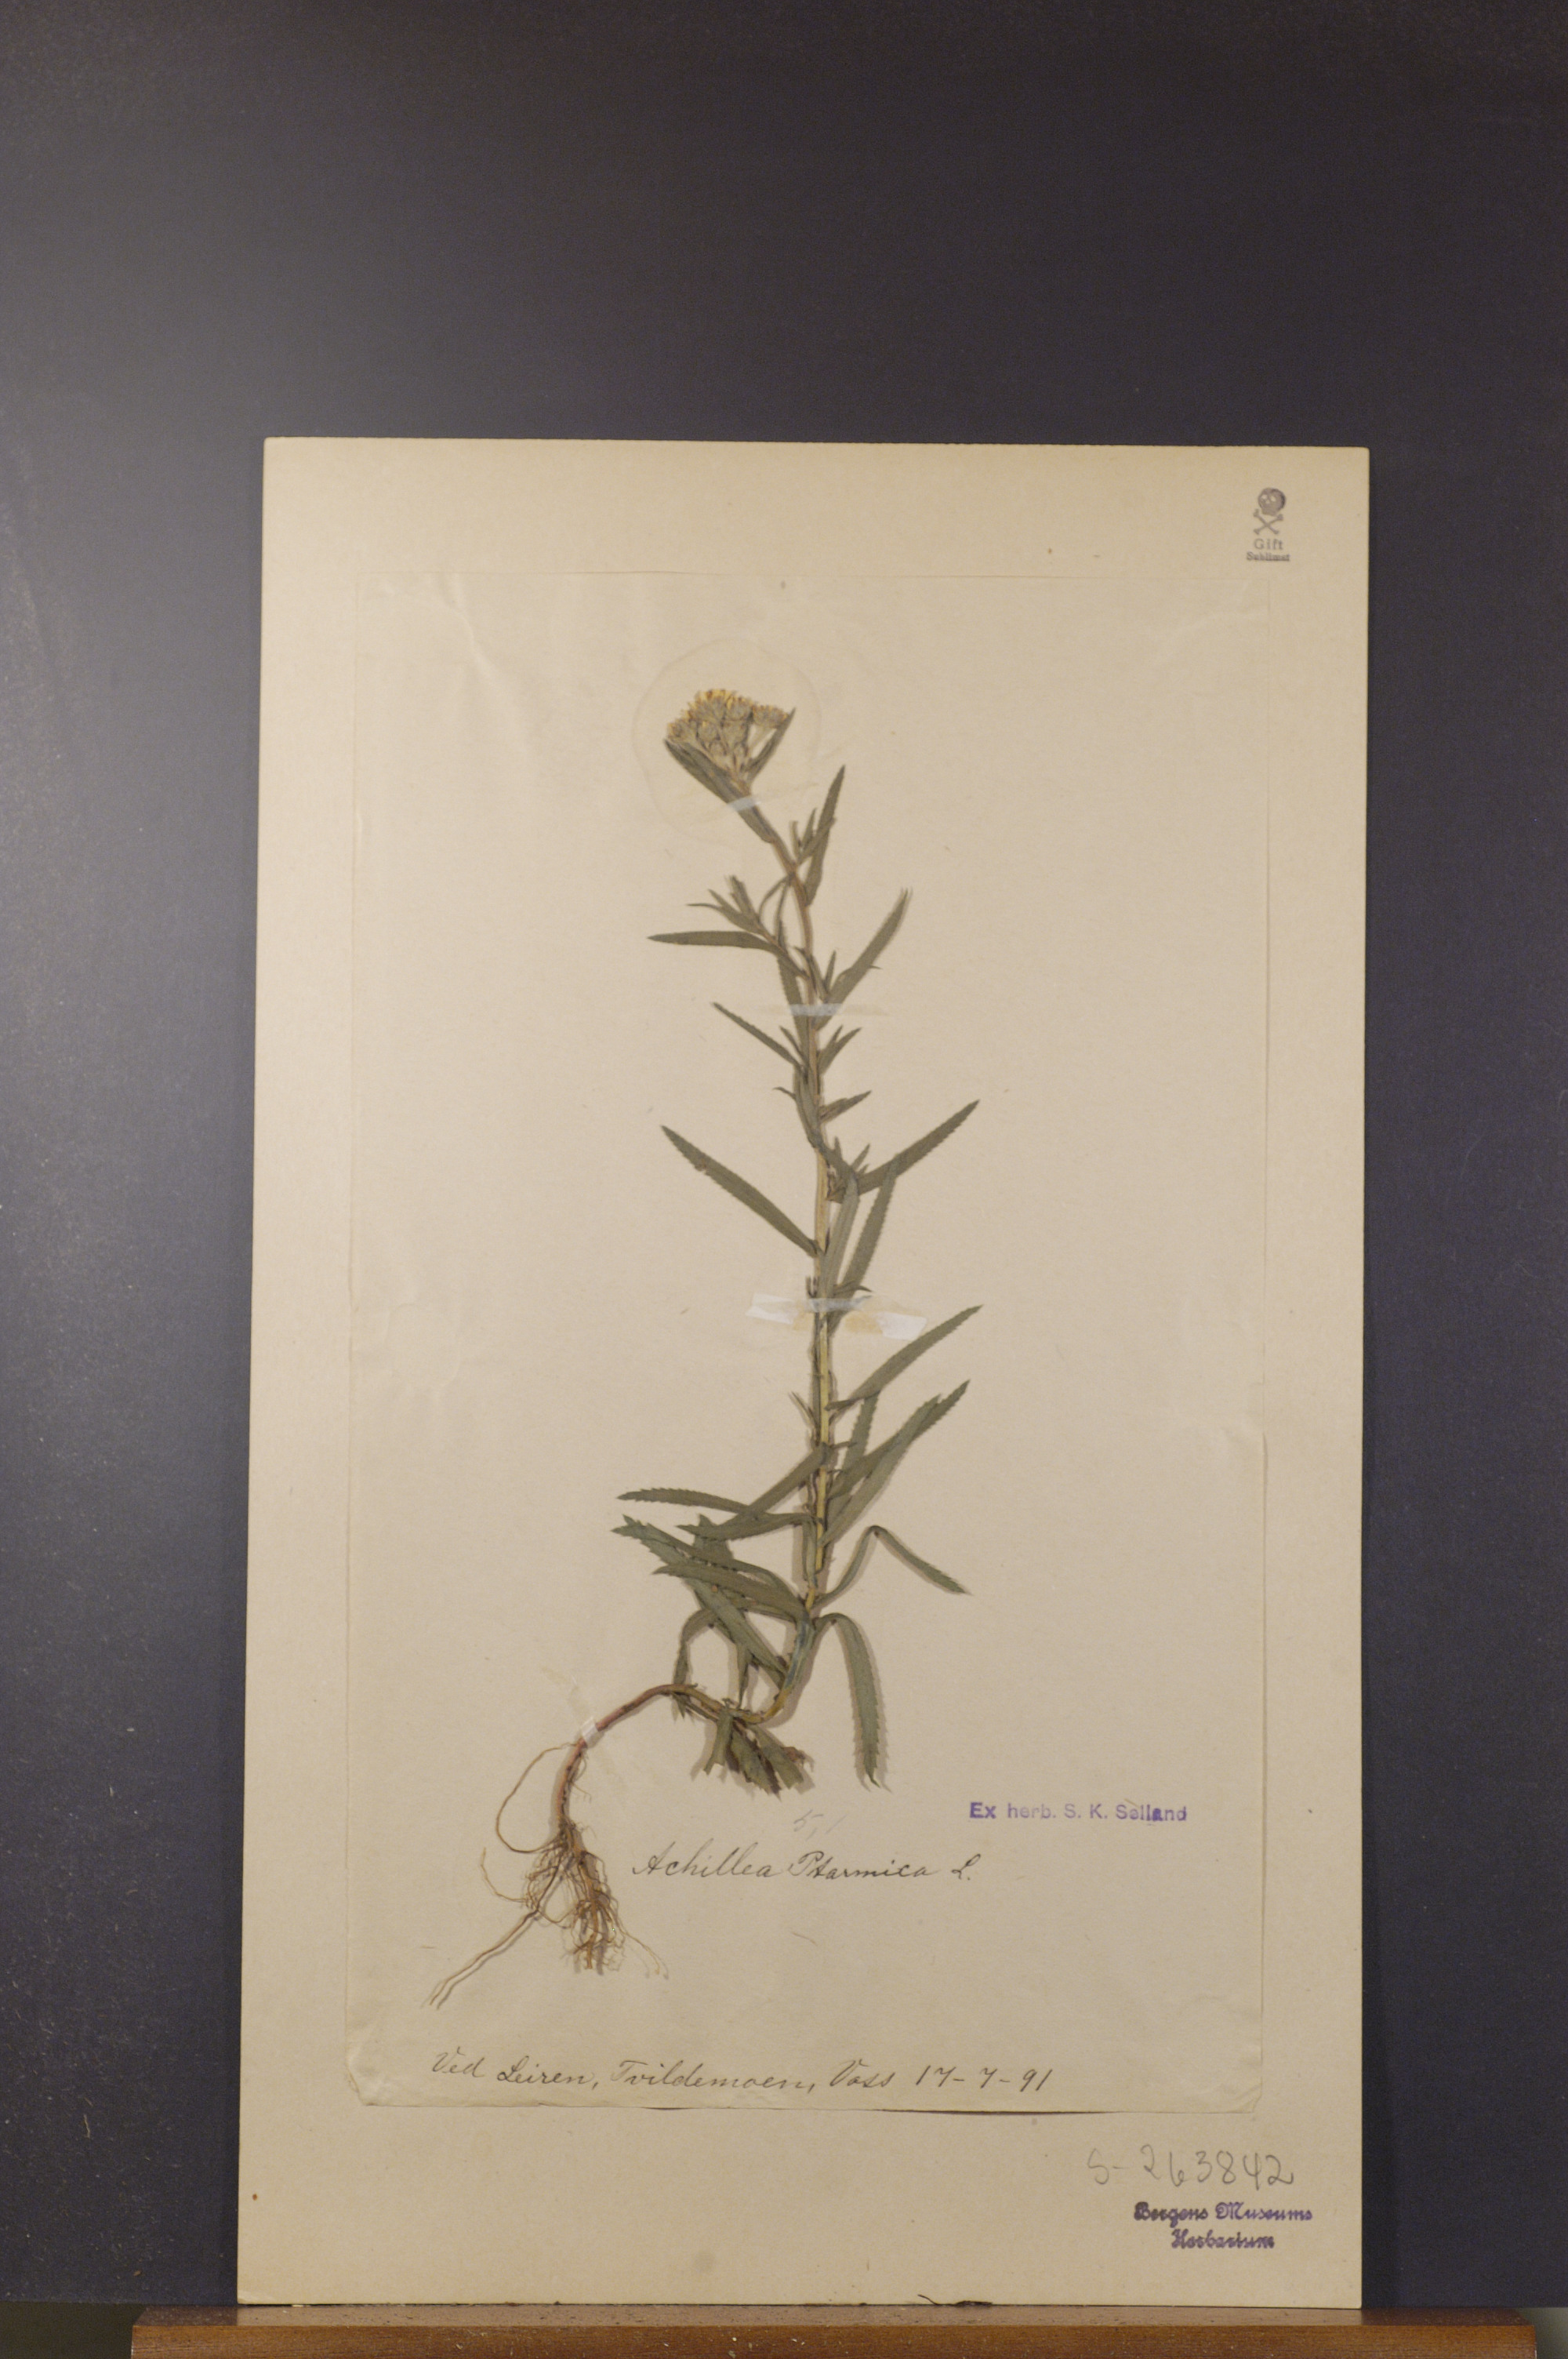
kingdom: Plantae
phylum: Tracheophyta
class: Magnoliopsida
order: Asterales
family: Asteraceae
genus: Achillea
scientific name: Achillea ptarmica
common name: Sneezeweed
